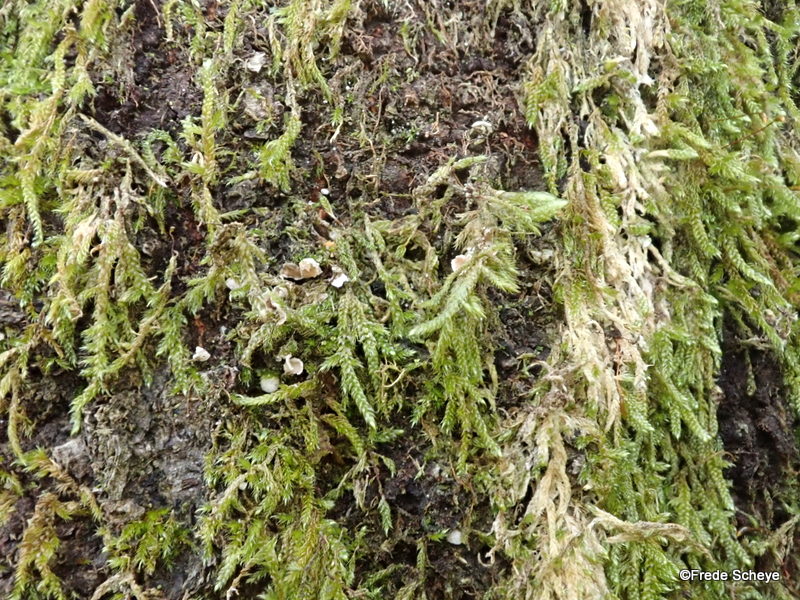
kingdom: Fungi
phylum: Basidiomycota
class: Agaricomycetes
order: Agaricales
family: Chromocyphellaceae
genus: Chromocyphella
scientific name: Chromocyphella muscicola
